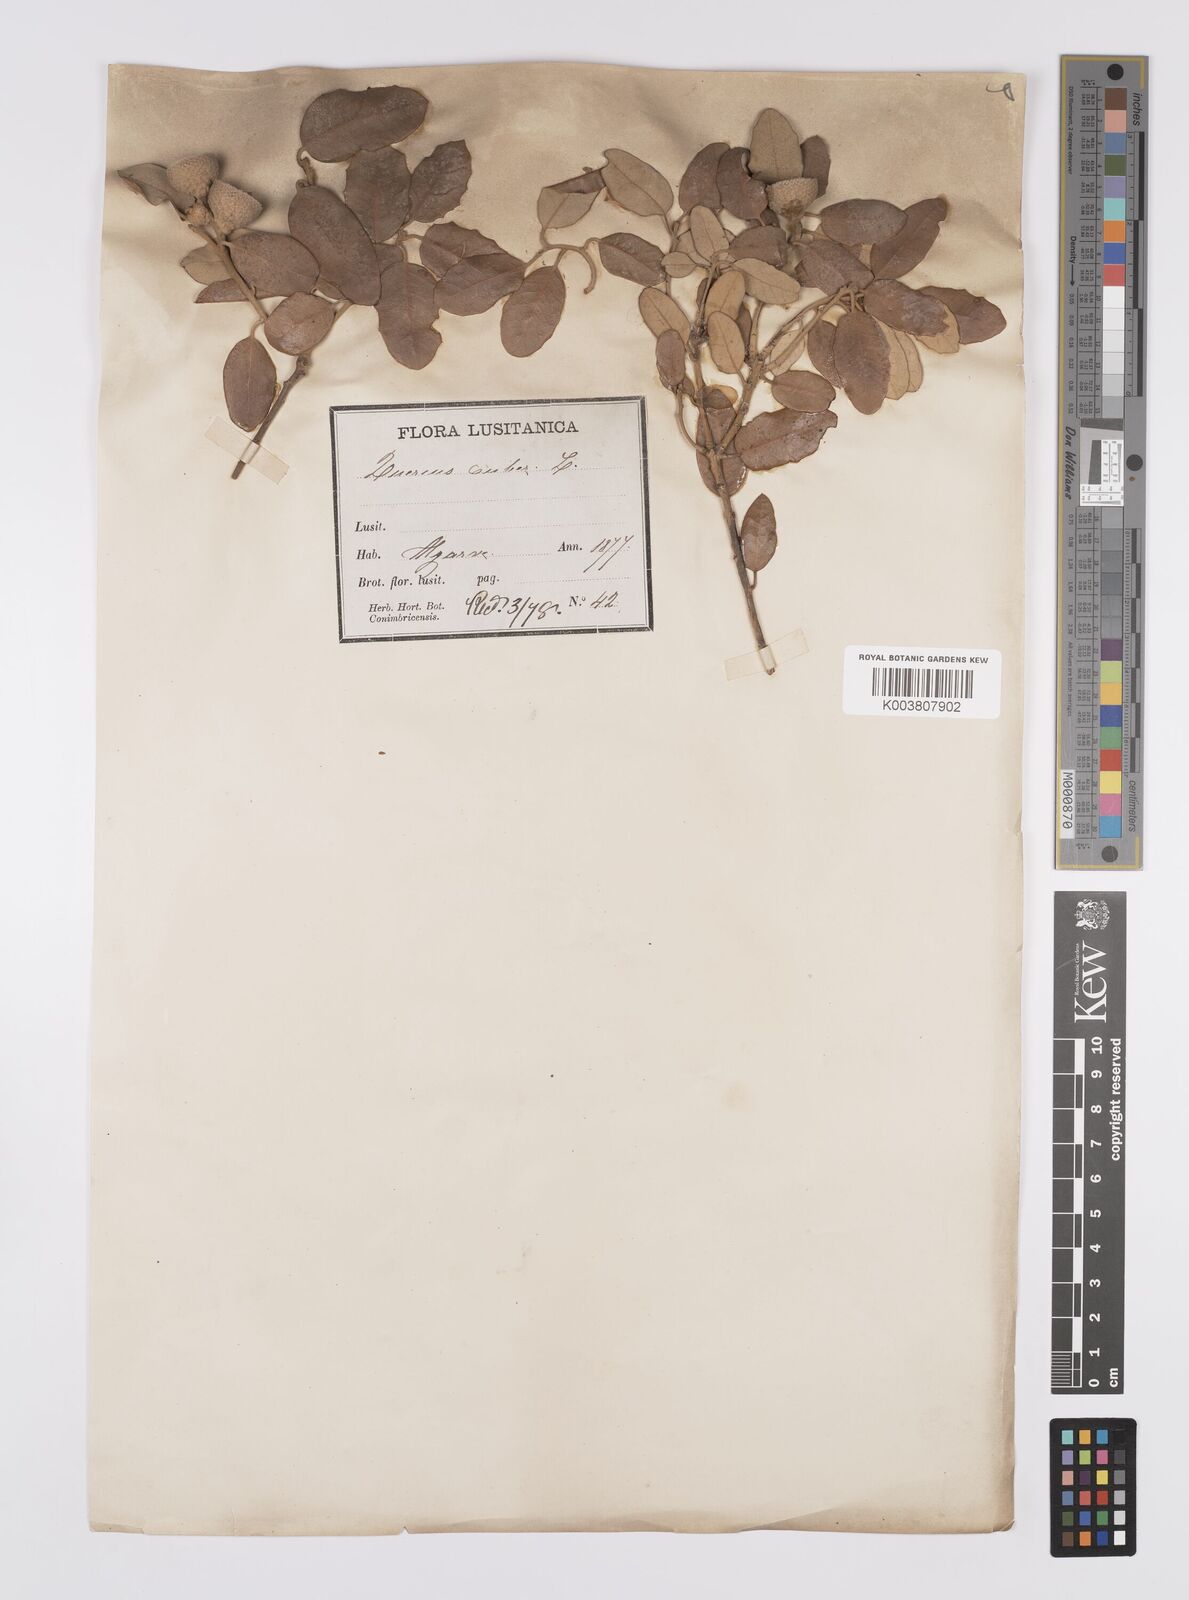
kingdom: Plantae
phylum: Tracheophyta
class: Magnoliopsida
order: Fagales
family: Fagaceae
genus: Quercus
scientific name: Quercus suber
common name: Cork oak
